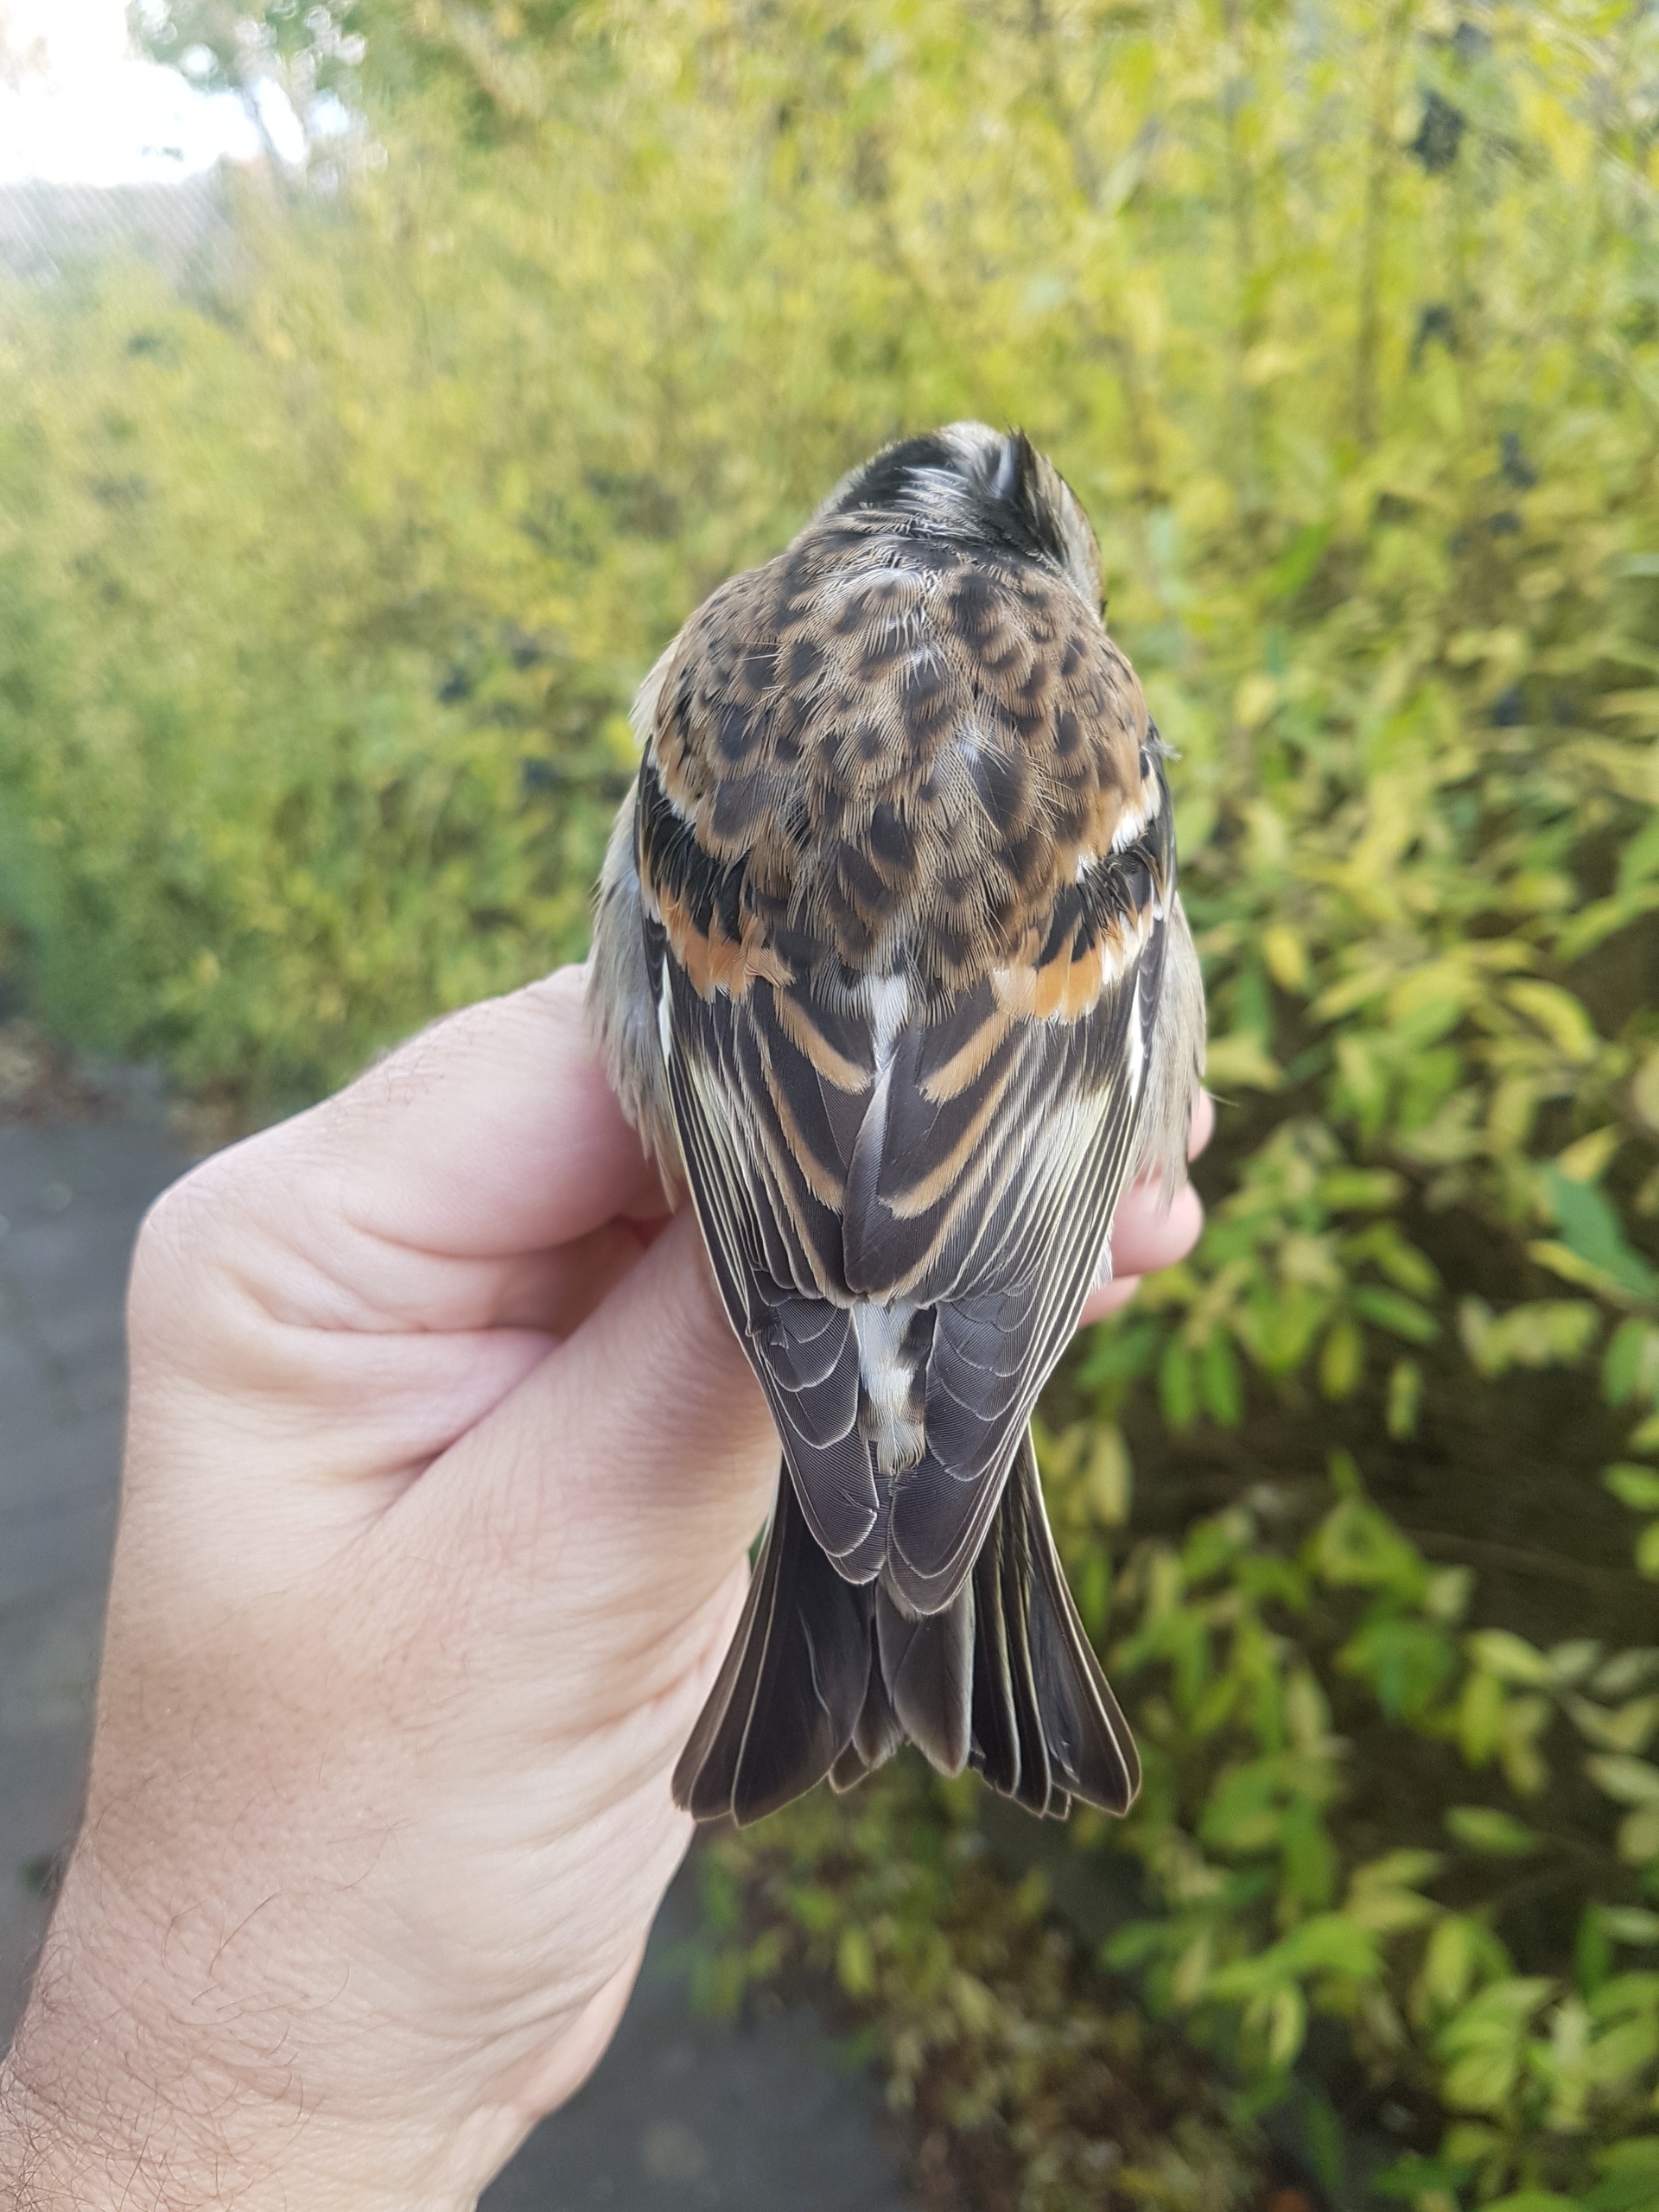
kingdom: Animalia
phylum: Chordata
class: Aves
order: Passeriformes
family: Fringillidae
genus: Fringilla
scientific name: Fringilla montifringilla
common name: Kvækerfinke
